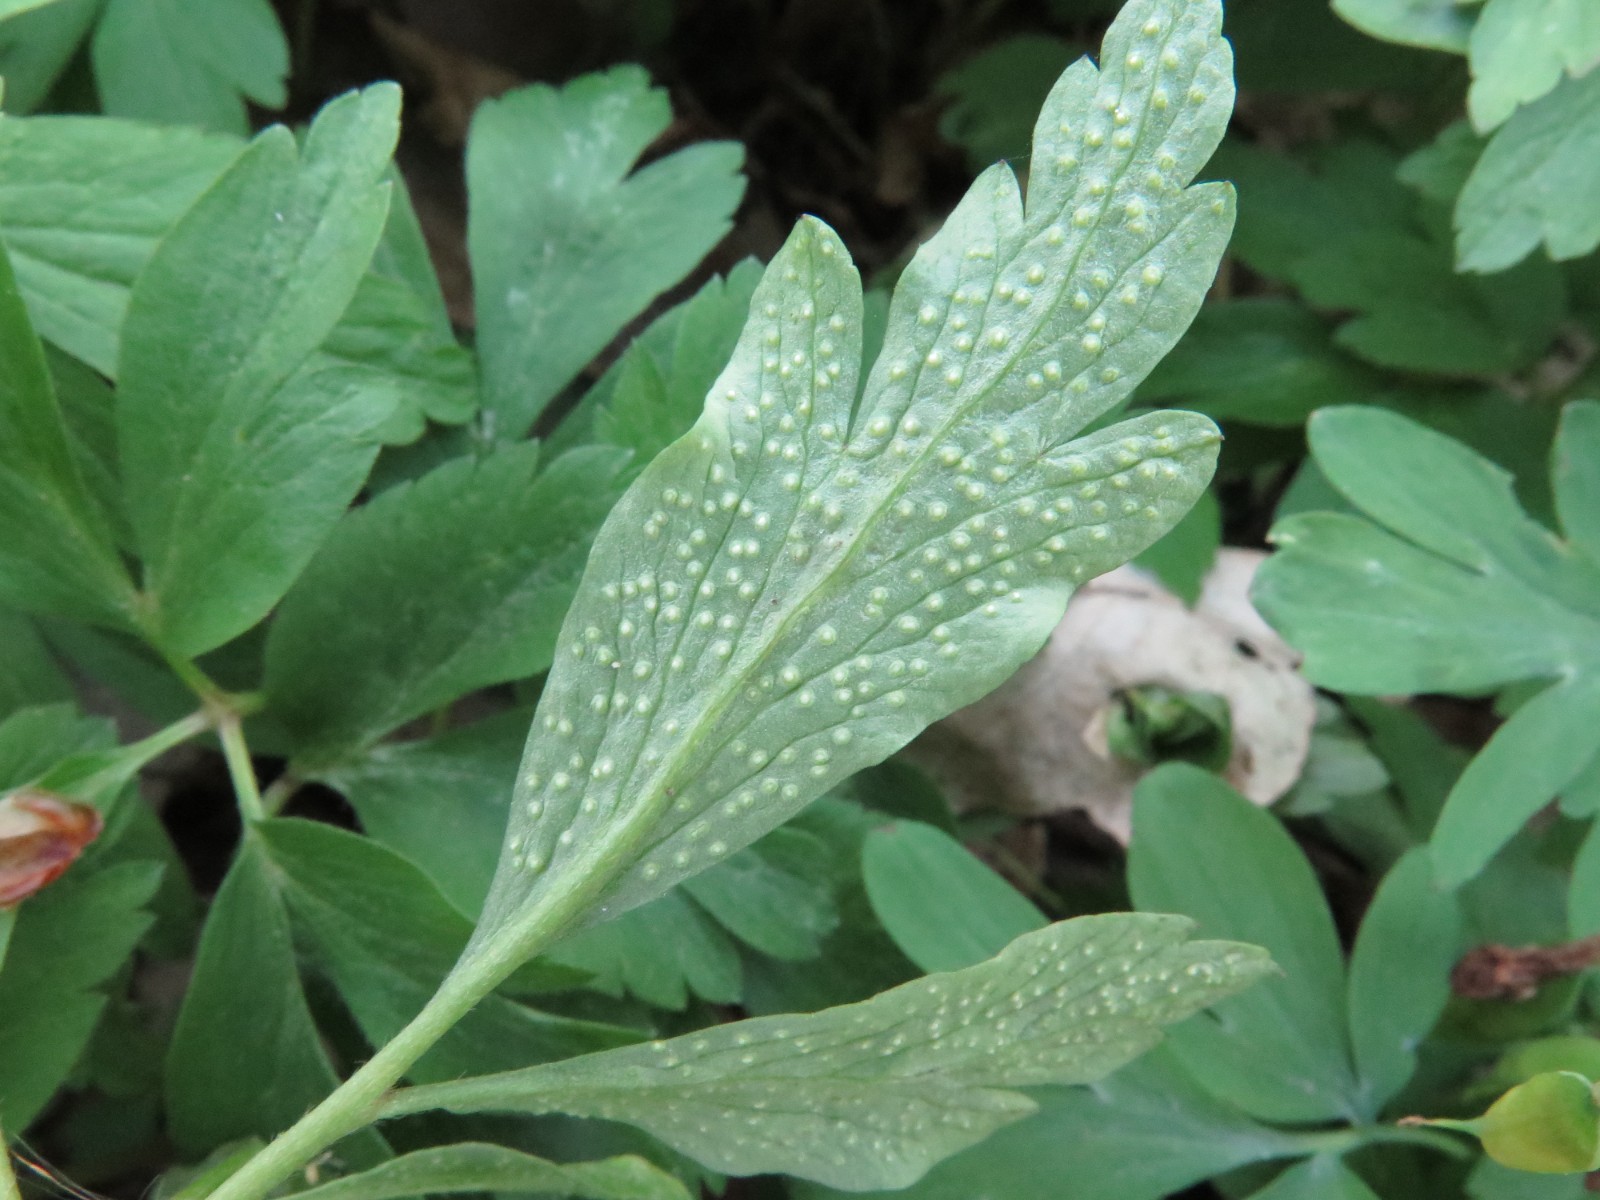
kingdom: Fungi
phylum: Basidiomycota
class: Pucciniomycetes
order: Pucciniales
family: Ochropsoraceae
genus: Ochropsora
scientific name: Ochropsora ariae
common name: anemone-okkerpletrust
